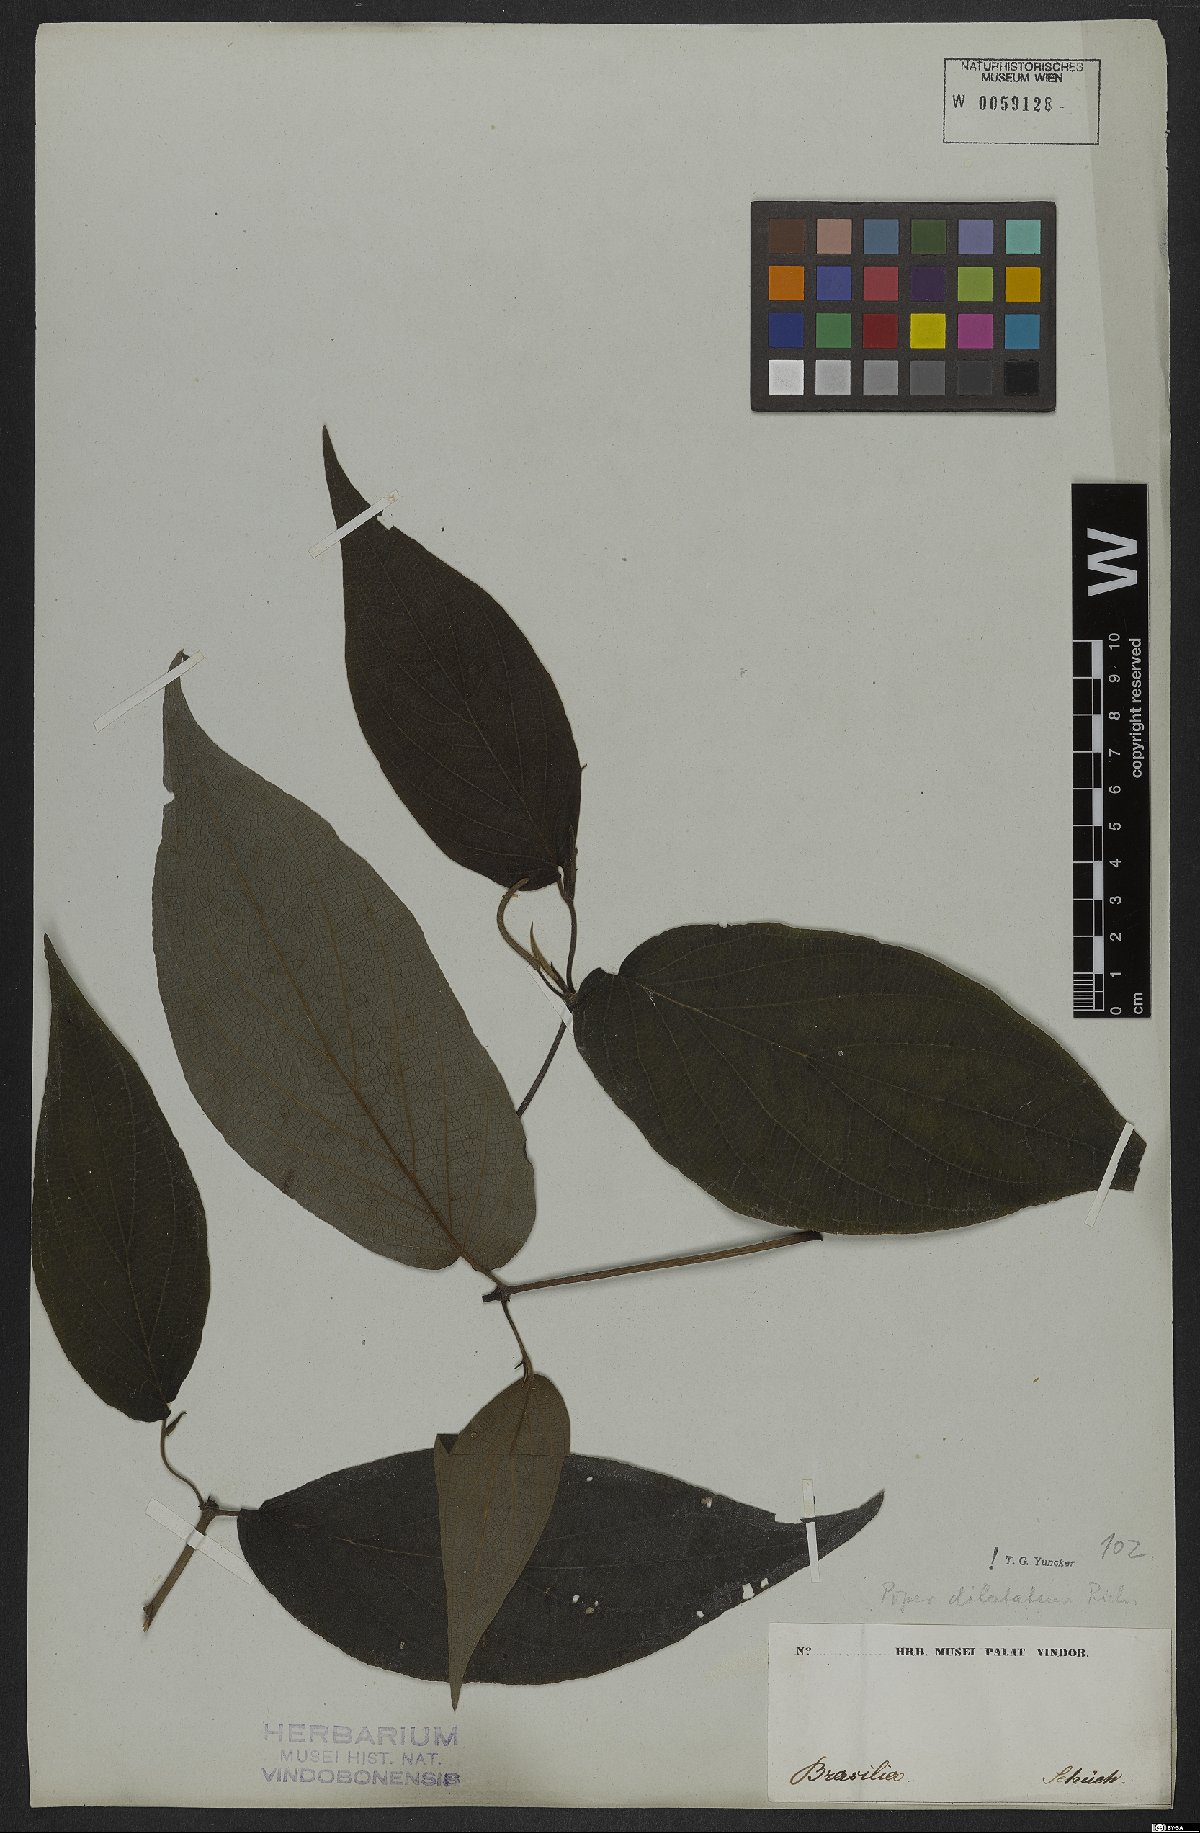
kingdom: Plantae
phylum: Tracheophyta
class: Magnoliopsida
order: Piperales
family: Piperaceae
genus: Piper
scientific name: Piper dilatatum
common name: Higuillo
